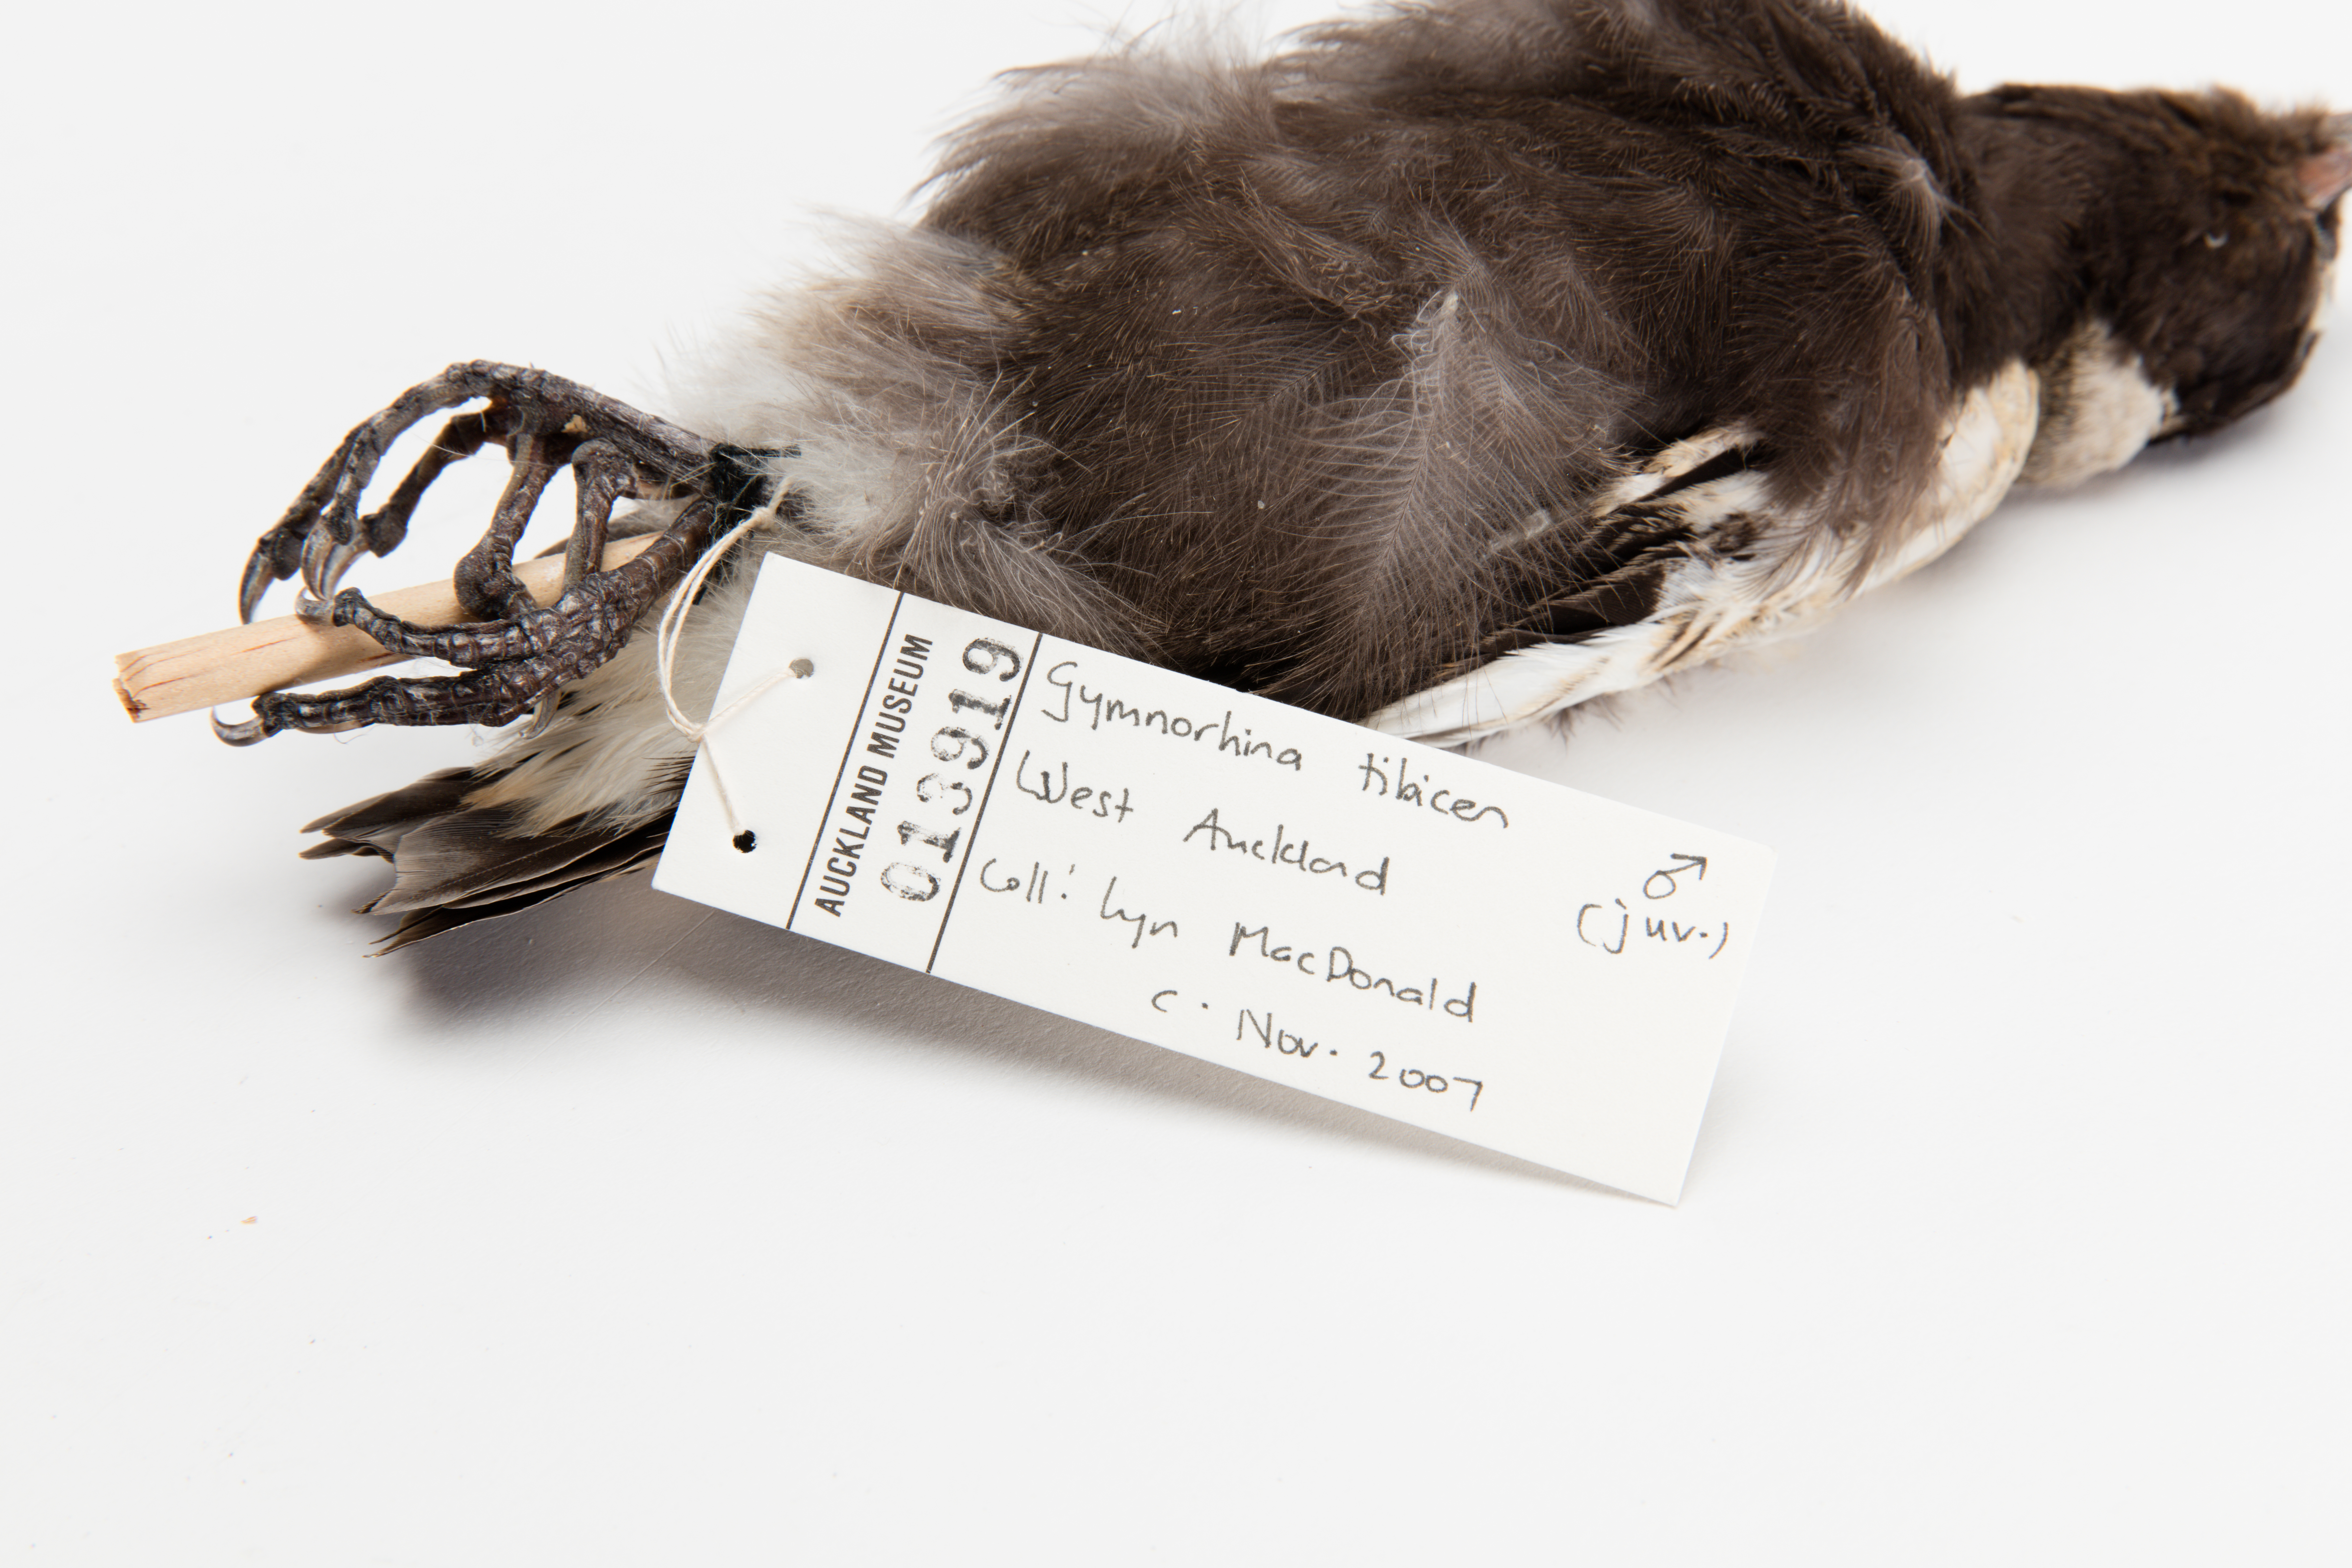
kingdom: Animalia
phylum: Chordata
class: Aves
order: Passeriformes
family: Cracticidae
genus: Gymnorhina
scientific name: Gymnorhina tibicen
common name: Australian magpie
